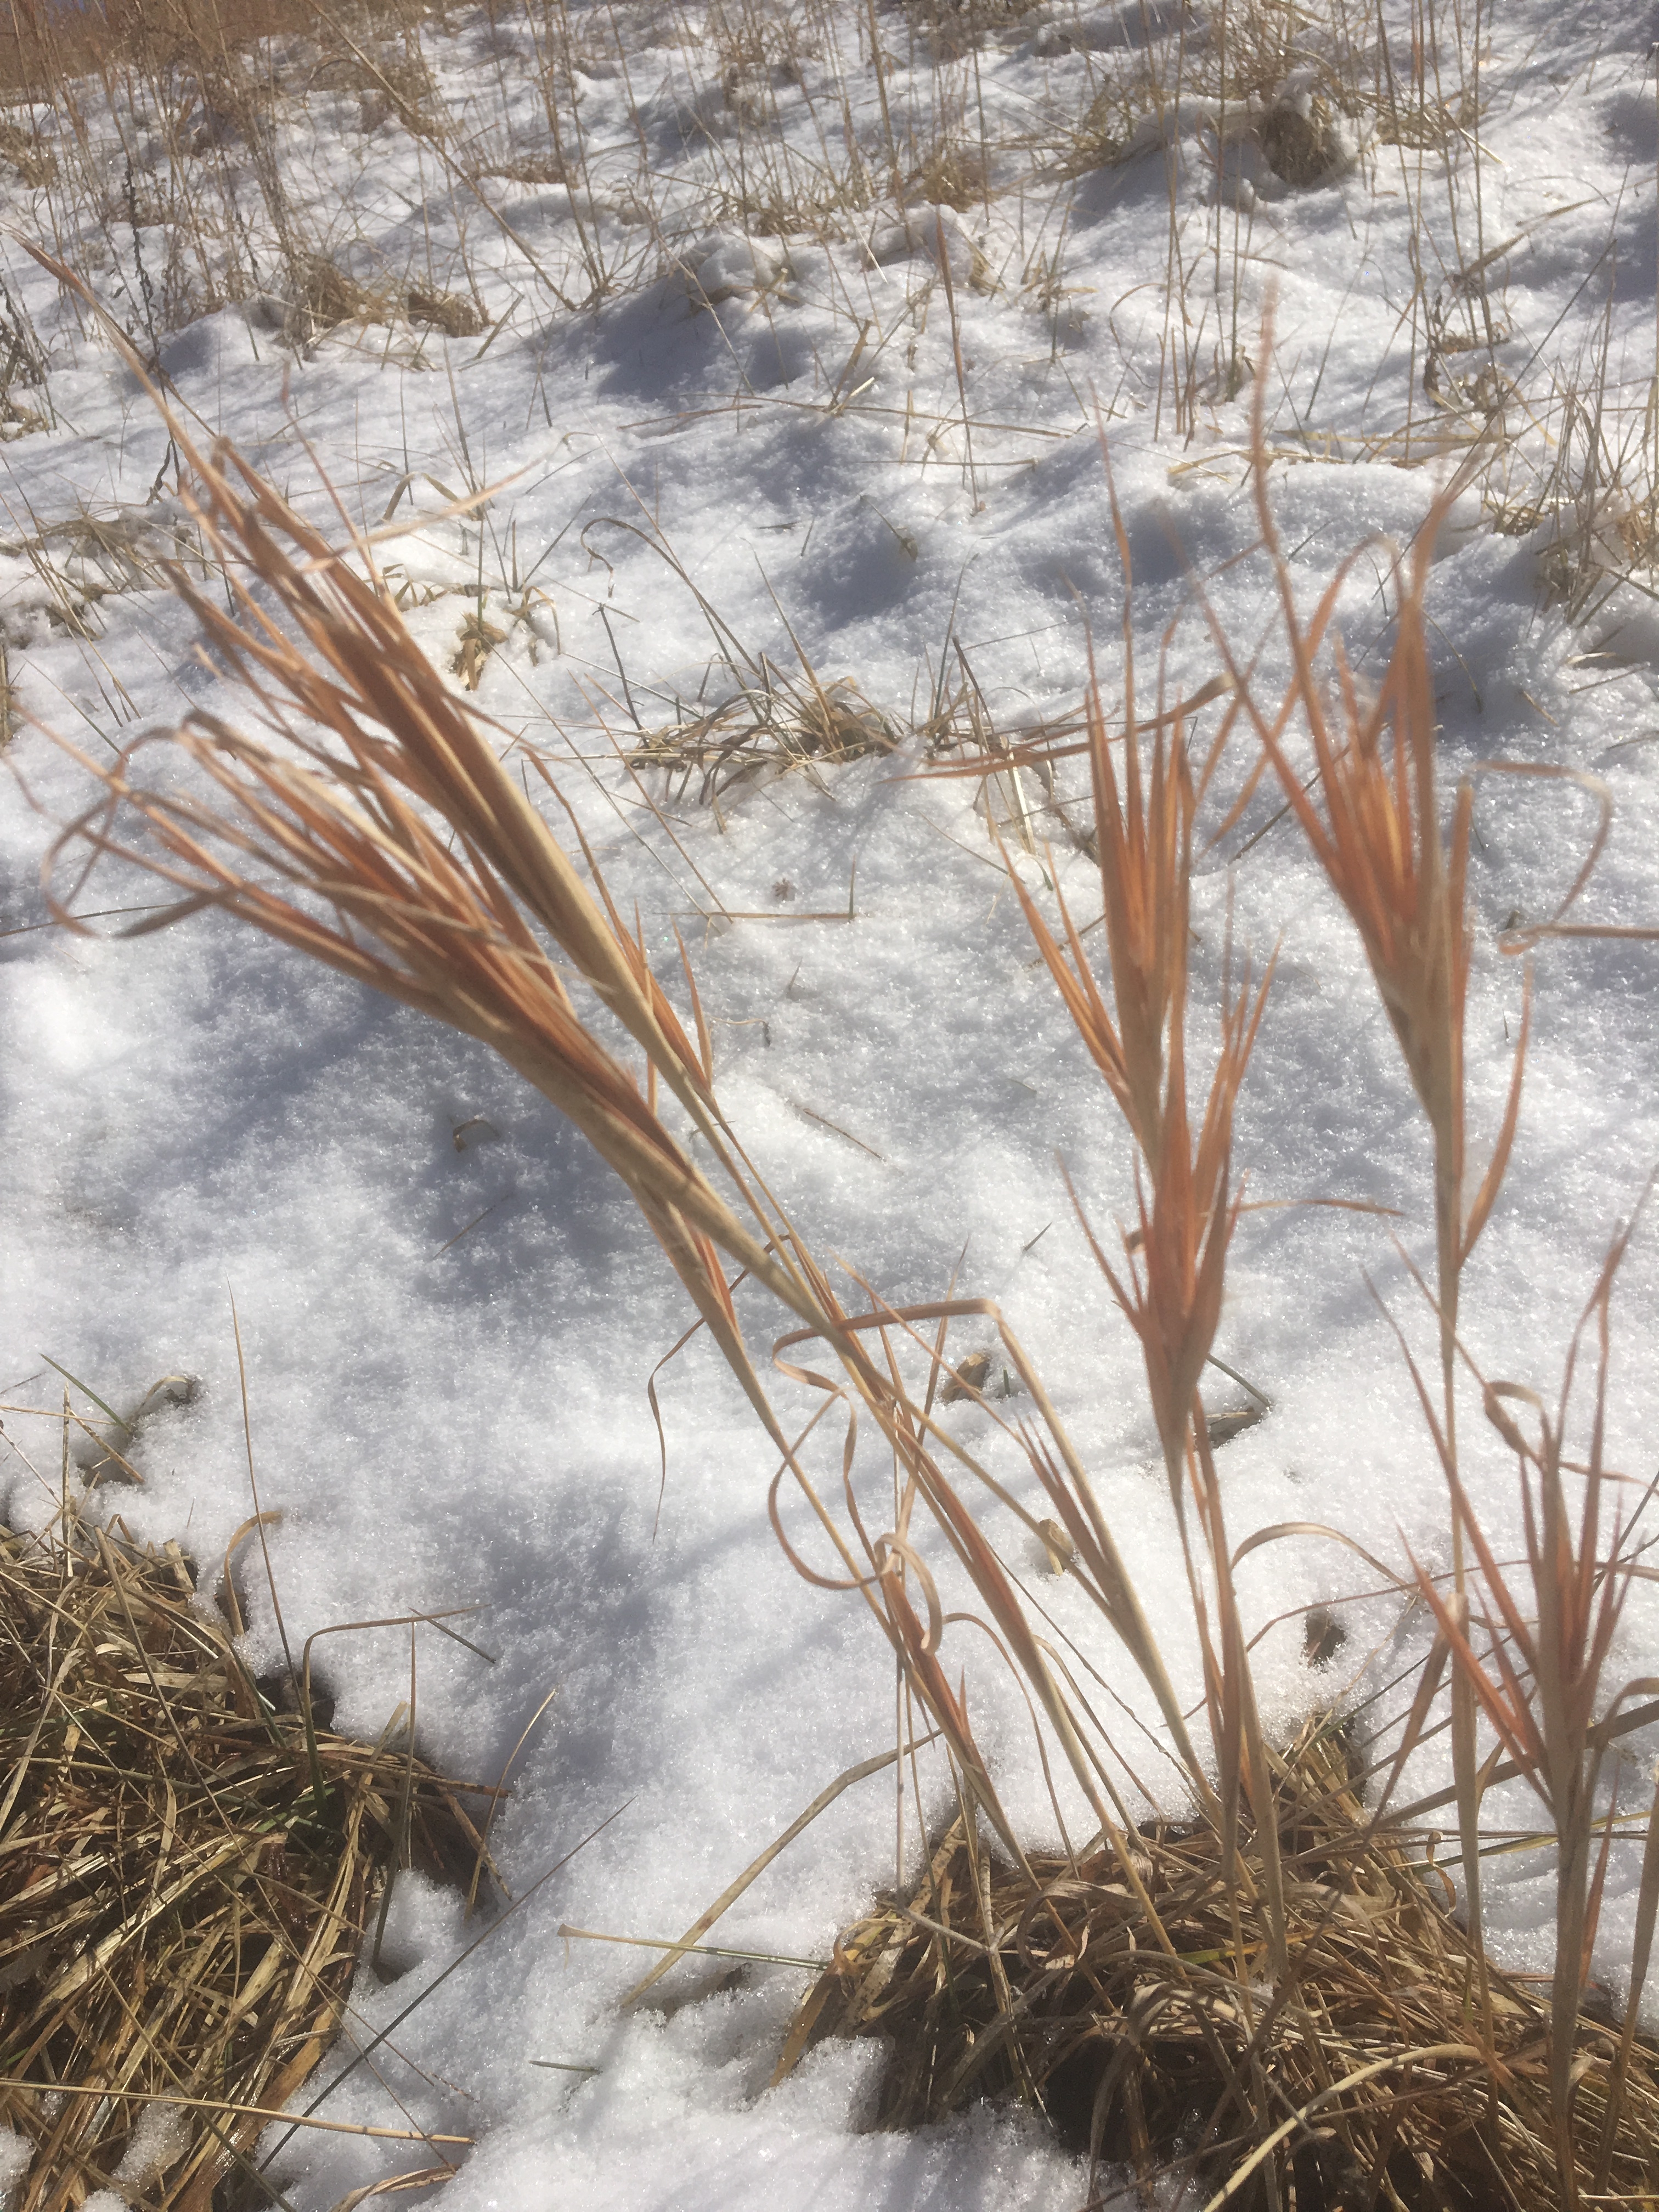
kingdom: Plantae
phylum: Tracheophyta
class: Liliopsida
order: Poales
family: Poaceae
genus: Andropogon
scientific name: Andropogon gyrans
